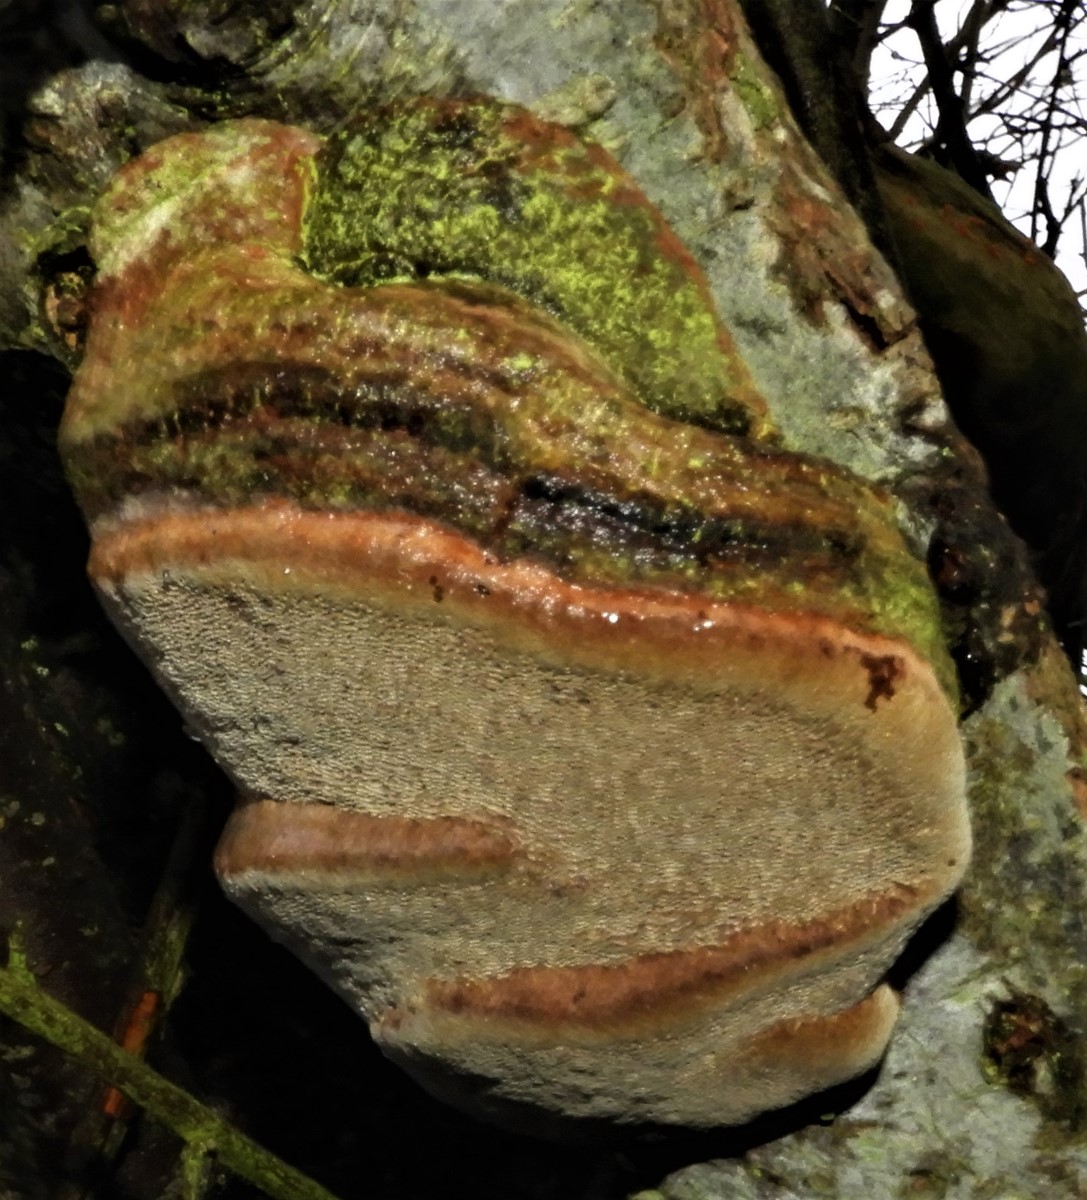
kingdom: Fungi
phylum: Basidiomycota
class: Agaricomycetes
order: Hymenochaetales
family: Hymenochaetaceae
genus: Phellinus
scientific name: Phellinus pomaceus
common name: blomme-ildporesvamp
